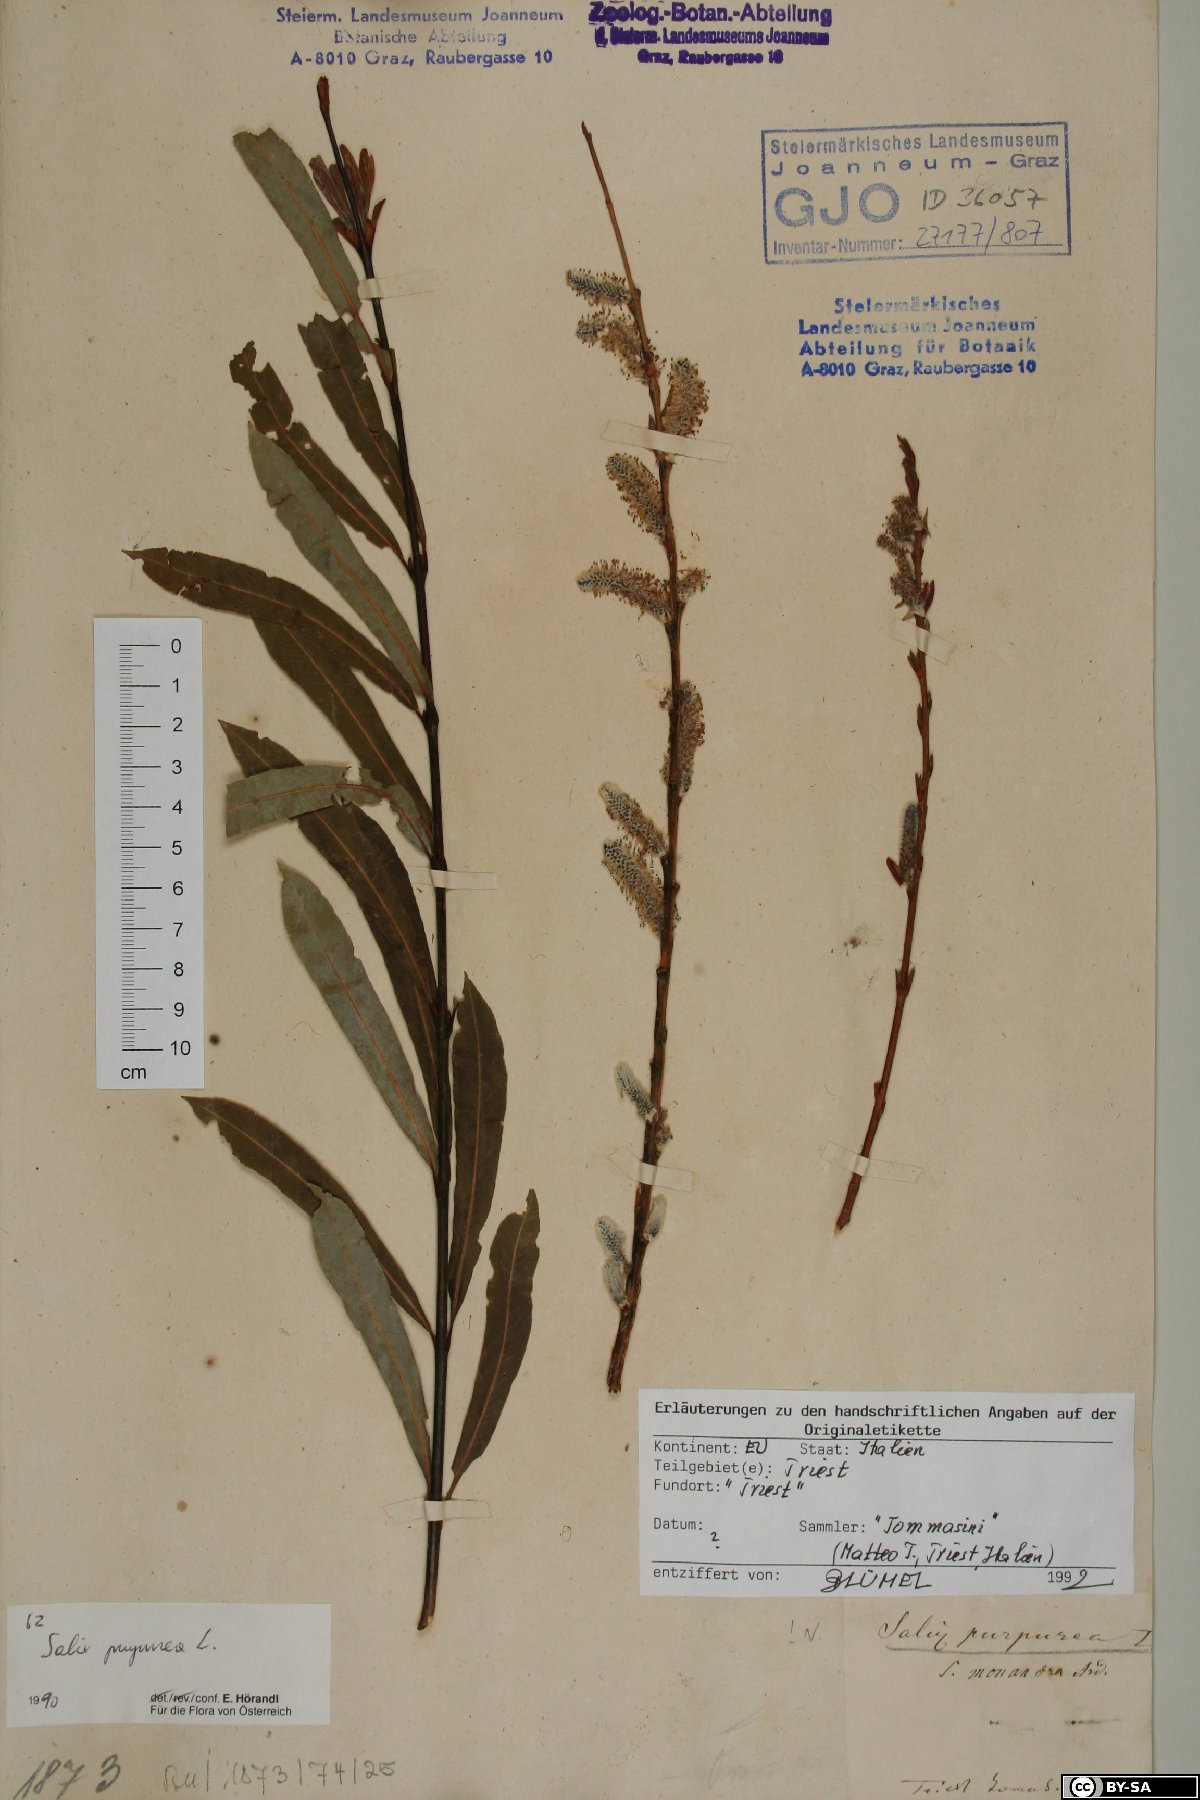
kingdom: Plantae
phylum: Tracheophyta
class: Magnoliopsida
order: Malpighiales
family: Salicaceae
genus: Salix
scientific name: Salix purpurea
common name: Purple willow
